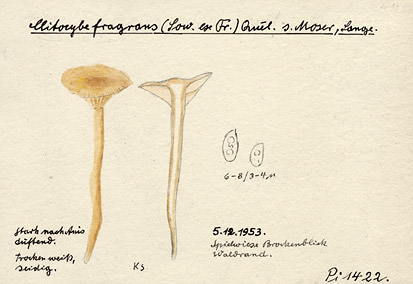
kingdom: Fungi
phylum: Basidiomycota
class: Agaricomycetes
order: Agaricales
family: Tricholomataceae
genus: Clitocybe
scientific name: Clitocybe fragrans
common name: Fragrant funnel
